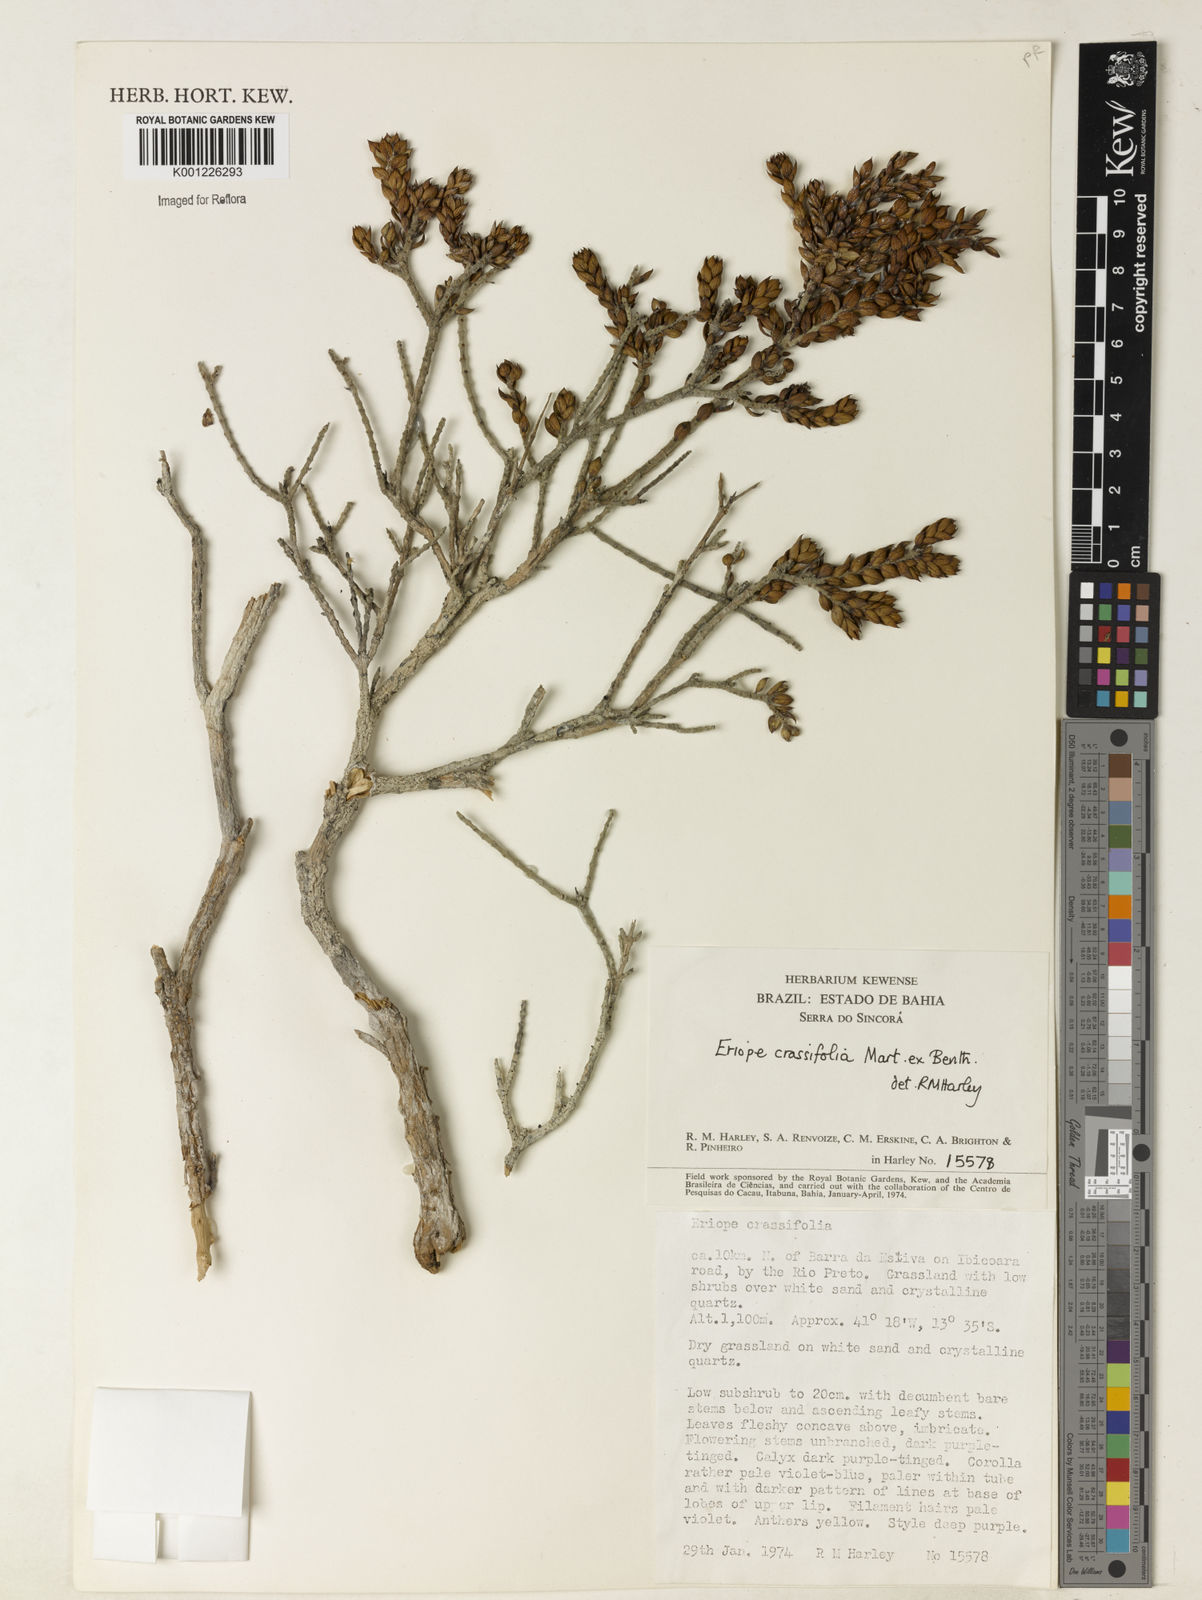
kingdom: Plantae
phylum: Tracheophyta
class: Magnoliopsida
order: Lamiales
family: Lamiaceae
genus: Eriope
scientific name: Eriope crassifolia
